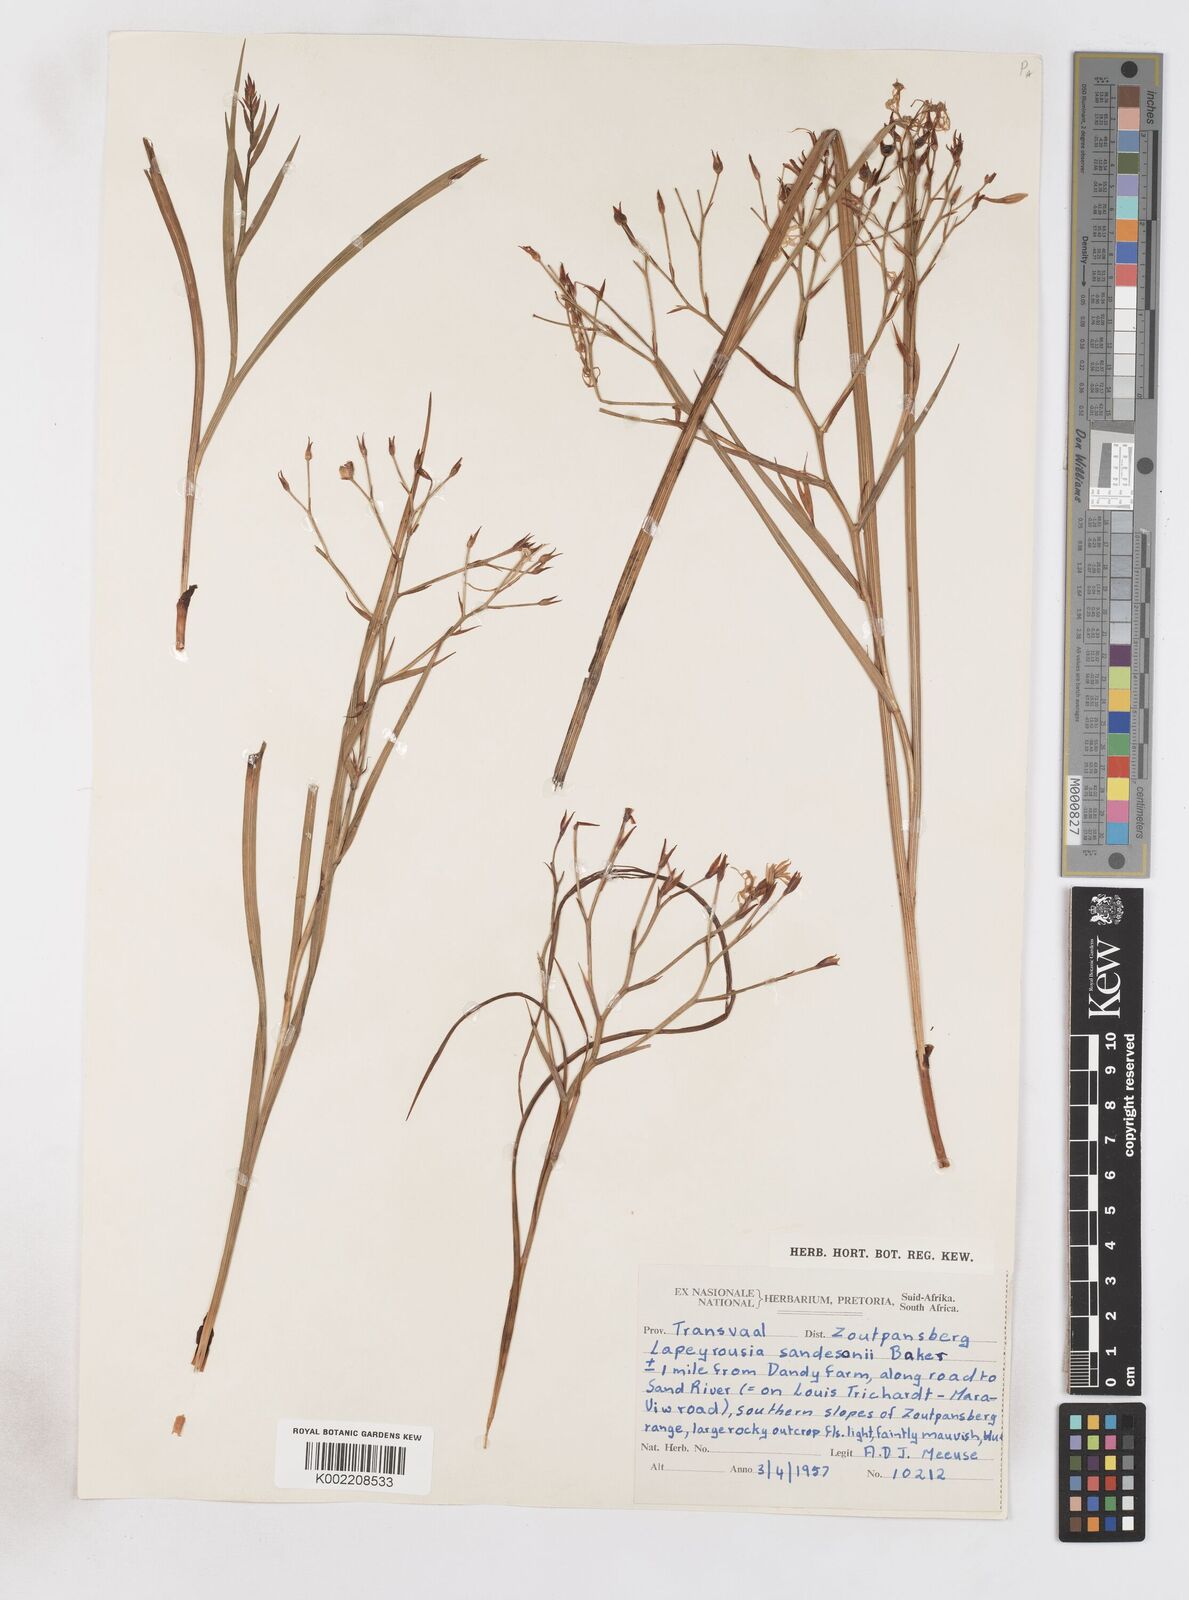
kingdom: Plantae
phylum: Tracheophyta
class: Liliopsida
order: Asparagales
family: Iridaceae
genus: Afrosolen
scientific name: Afrosolen sandersonii
